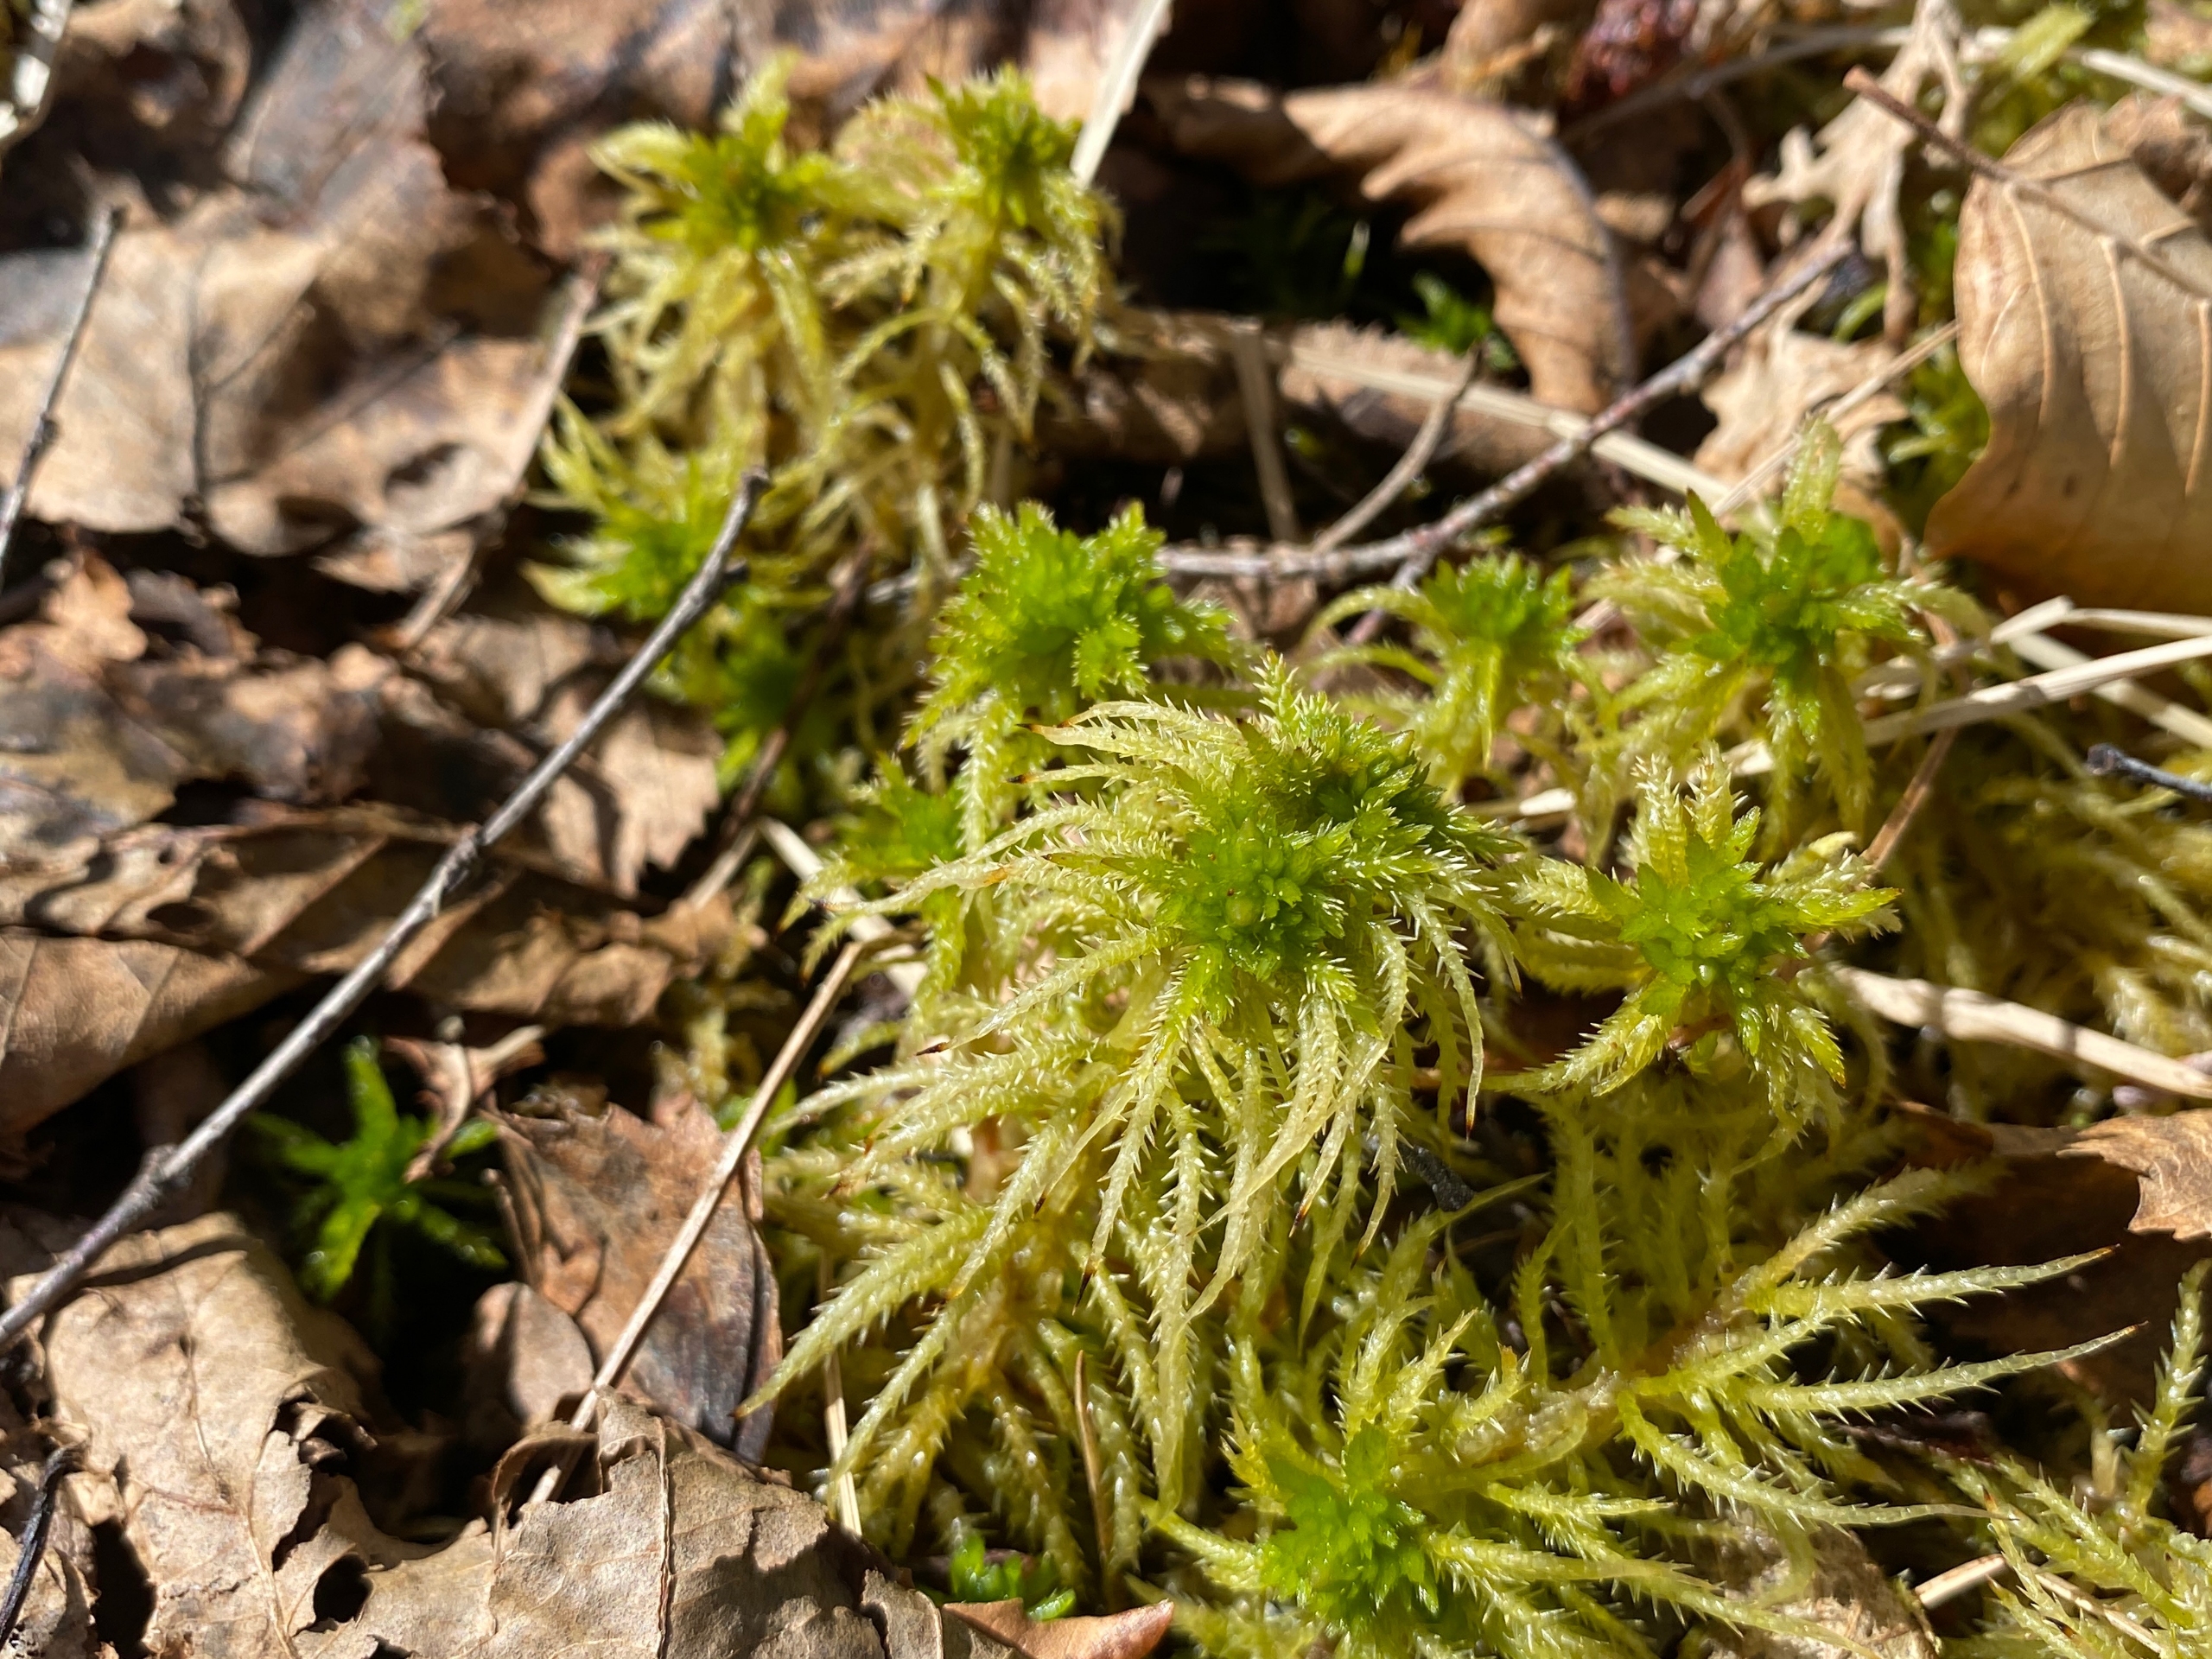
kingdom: Plantae
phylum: Bryophyta
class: Sphagnopsida
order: Sphagnales
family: Sphagnaceae
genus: Sphagnum
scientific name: Sphagnum squarrosum
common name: Udspærret tørvemos
